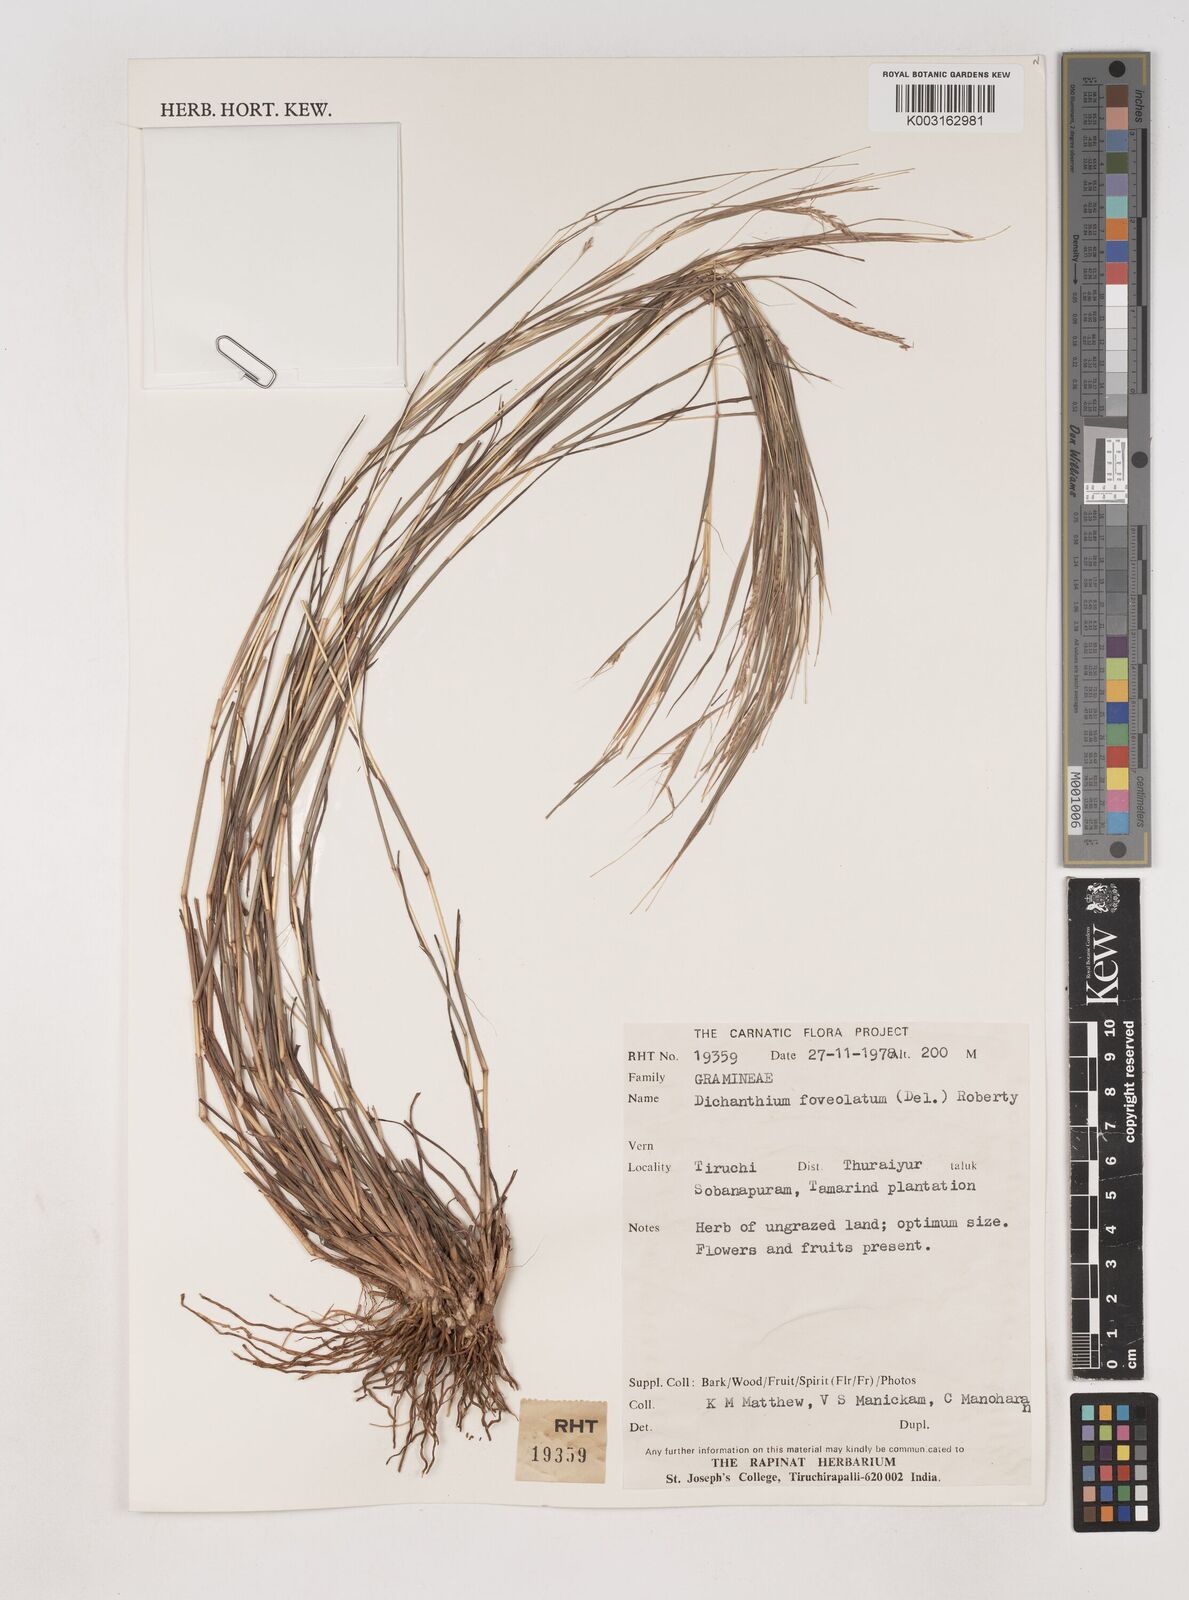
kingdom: Plantae
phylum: Tracheophyta
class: Liliopsida
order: Poales
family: Poaceae
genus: Dichanthium
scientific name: Dichanthium foveolatum
